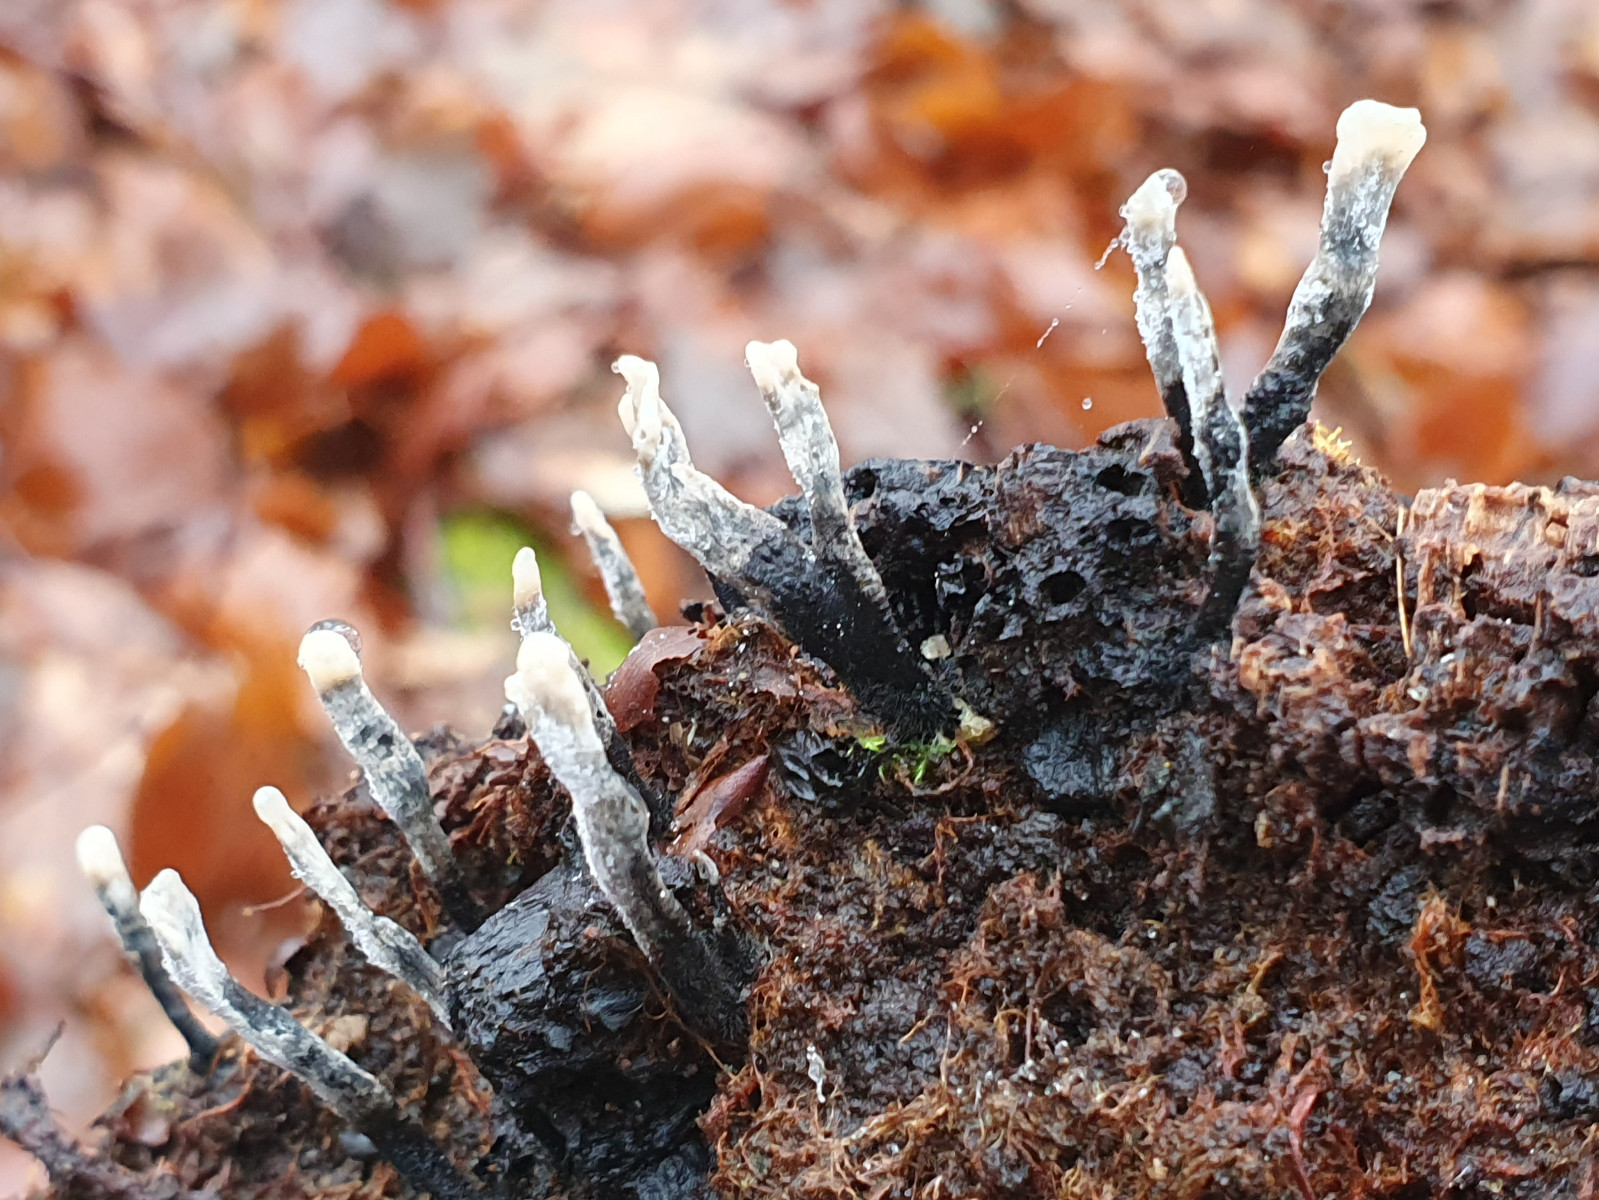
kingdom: Fungi
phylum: Ascomycota
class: Sordariomycetes
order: Xylariales
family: Xylariaceae
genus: Xylaria
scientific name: Xylaria hypoxylon
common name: grenet stødsvamp
